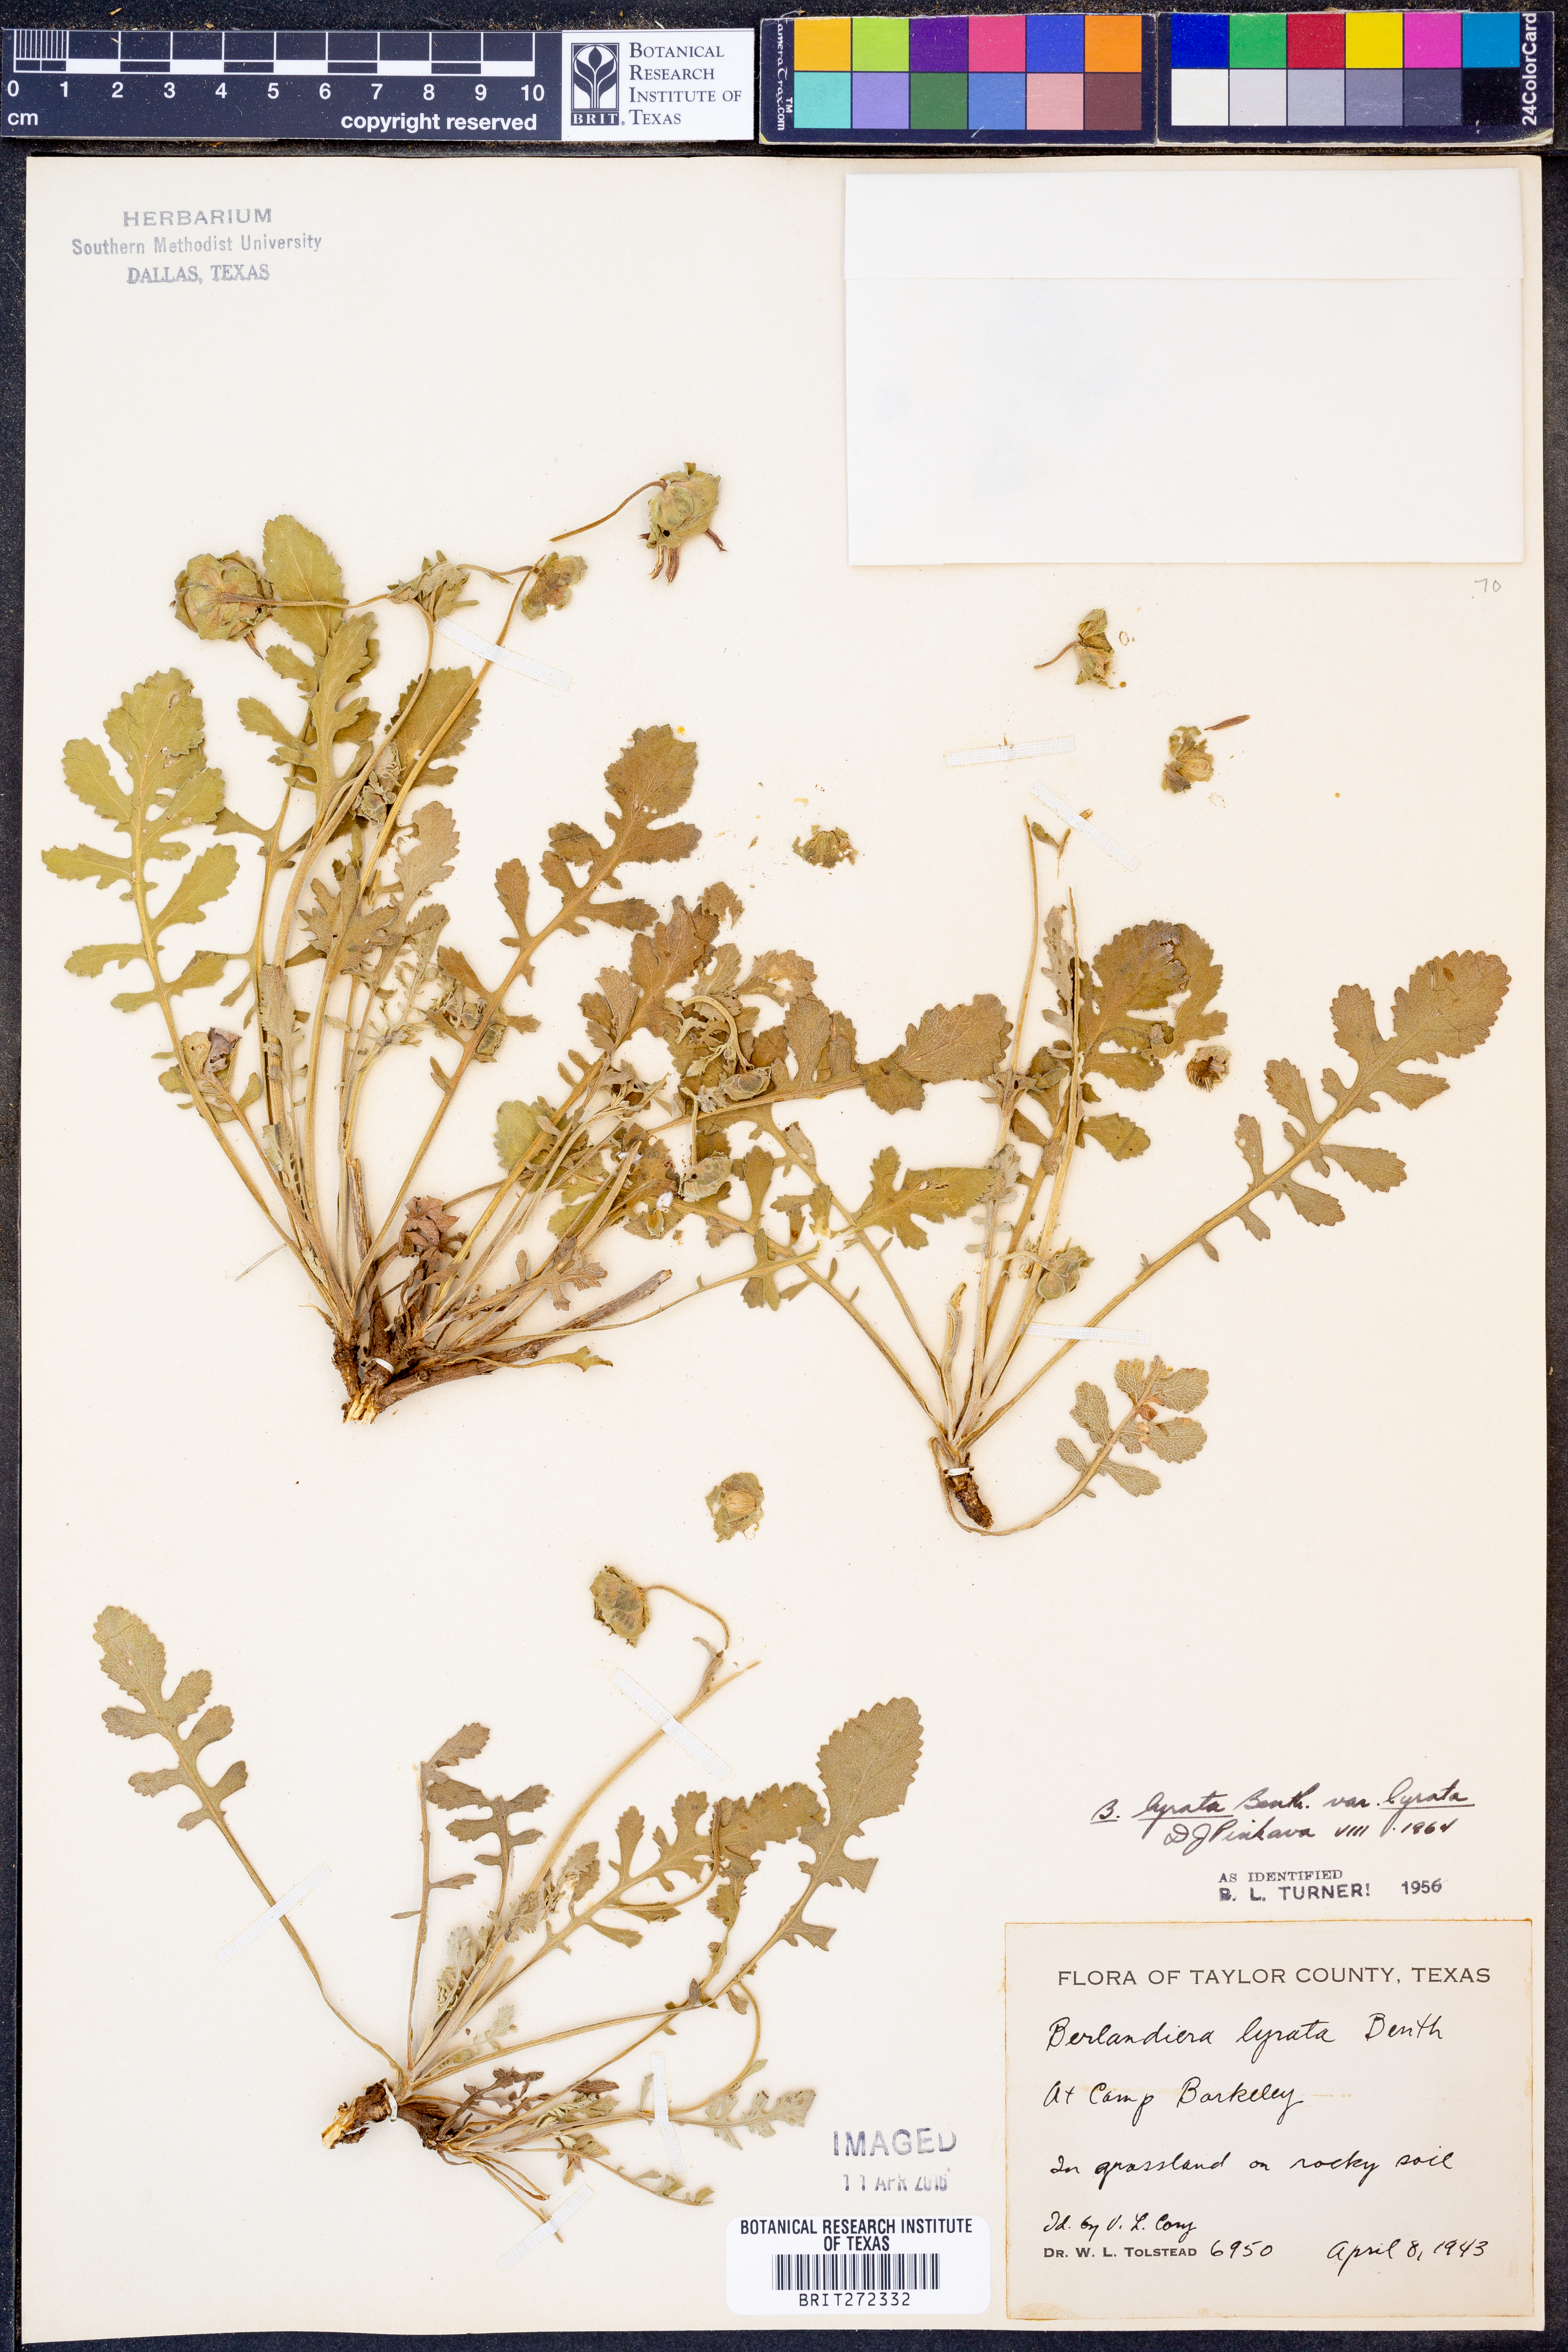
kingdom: Plantae
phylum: Tracheophyta
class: Magnoliopsida
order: Asterales
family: Asteraceae
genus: Berlandiera
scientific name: Berlandiera lyrata
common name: Chocolate-flower
